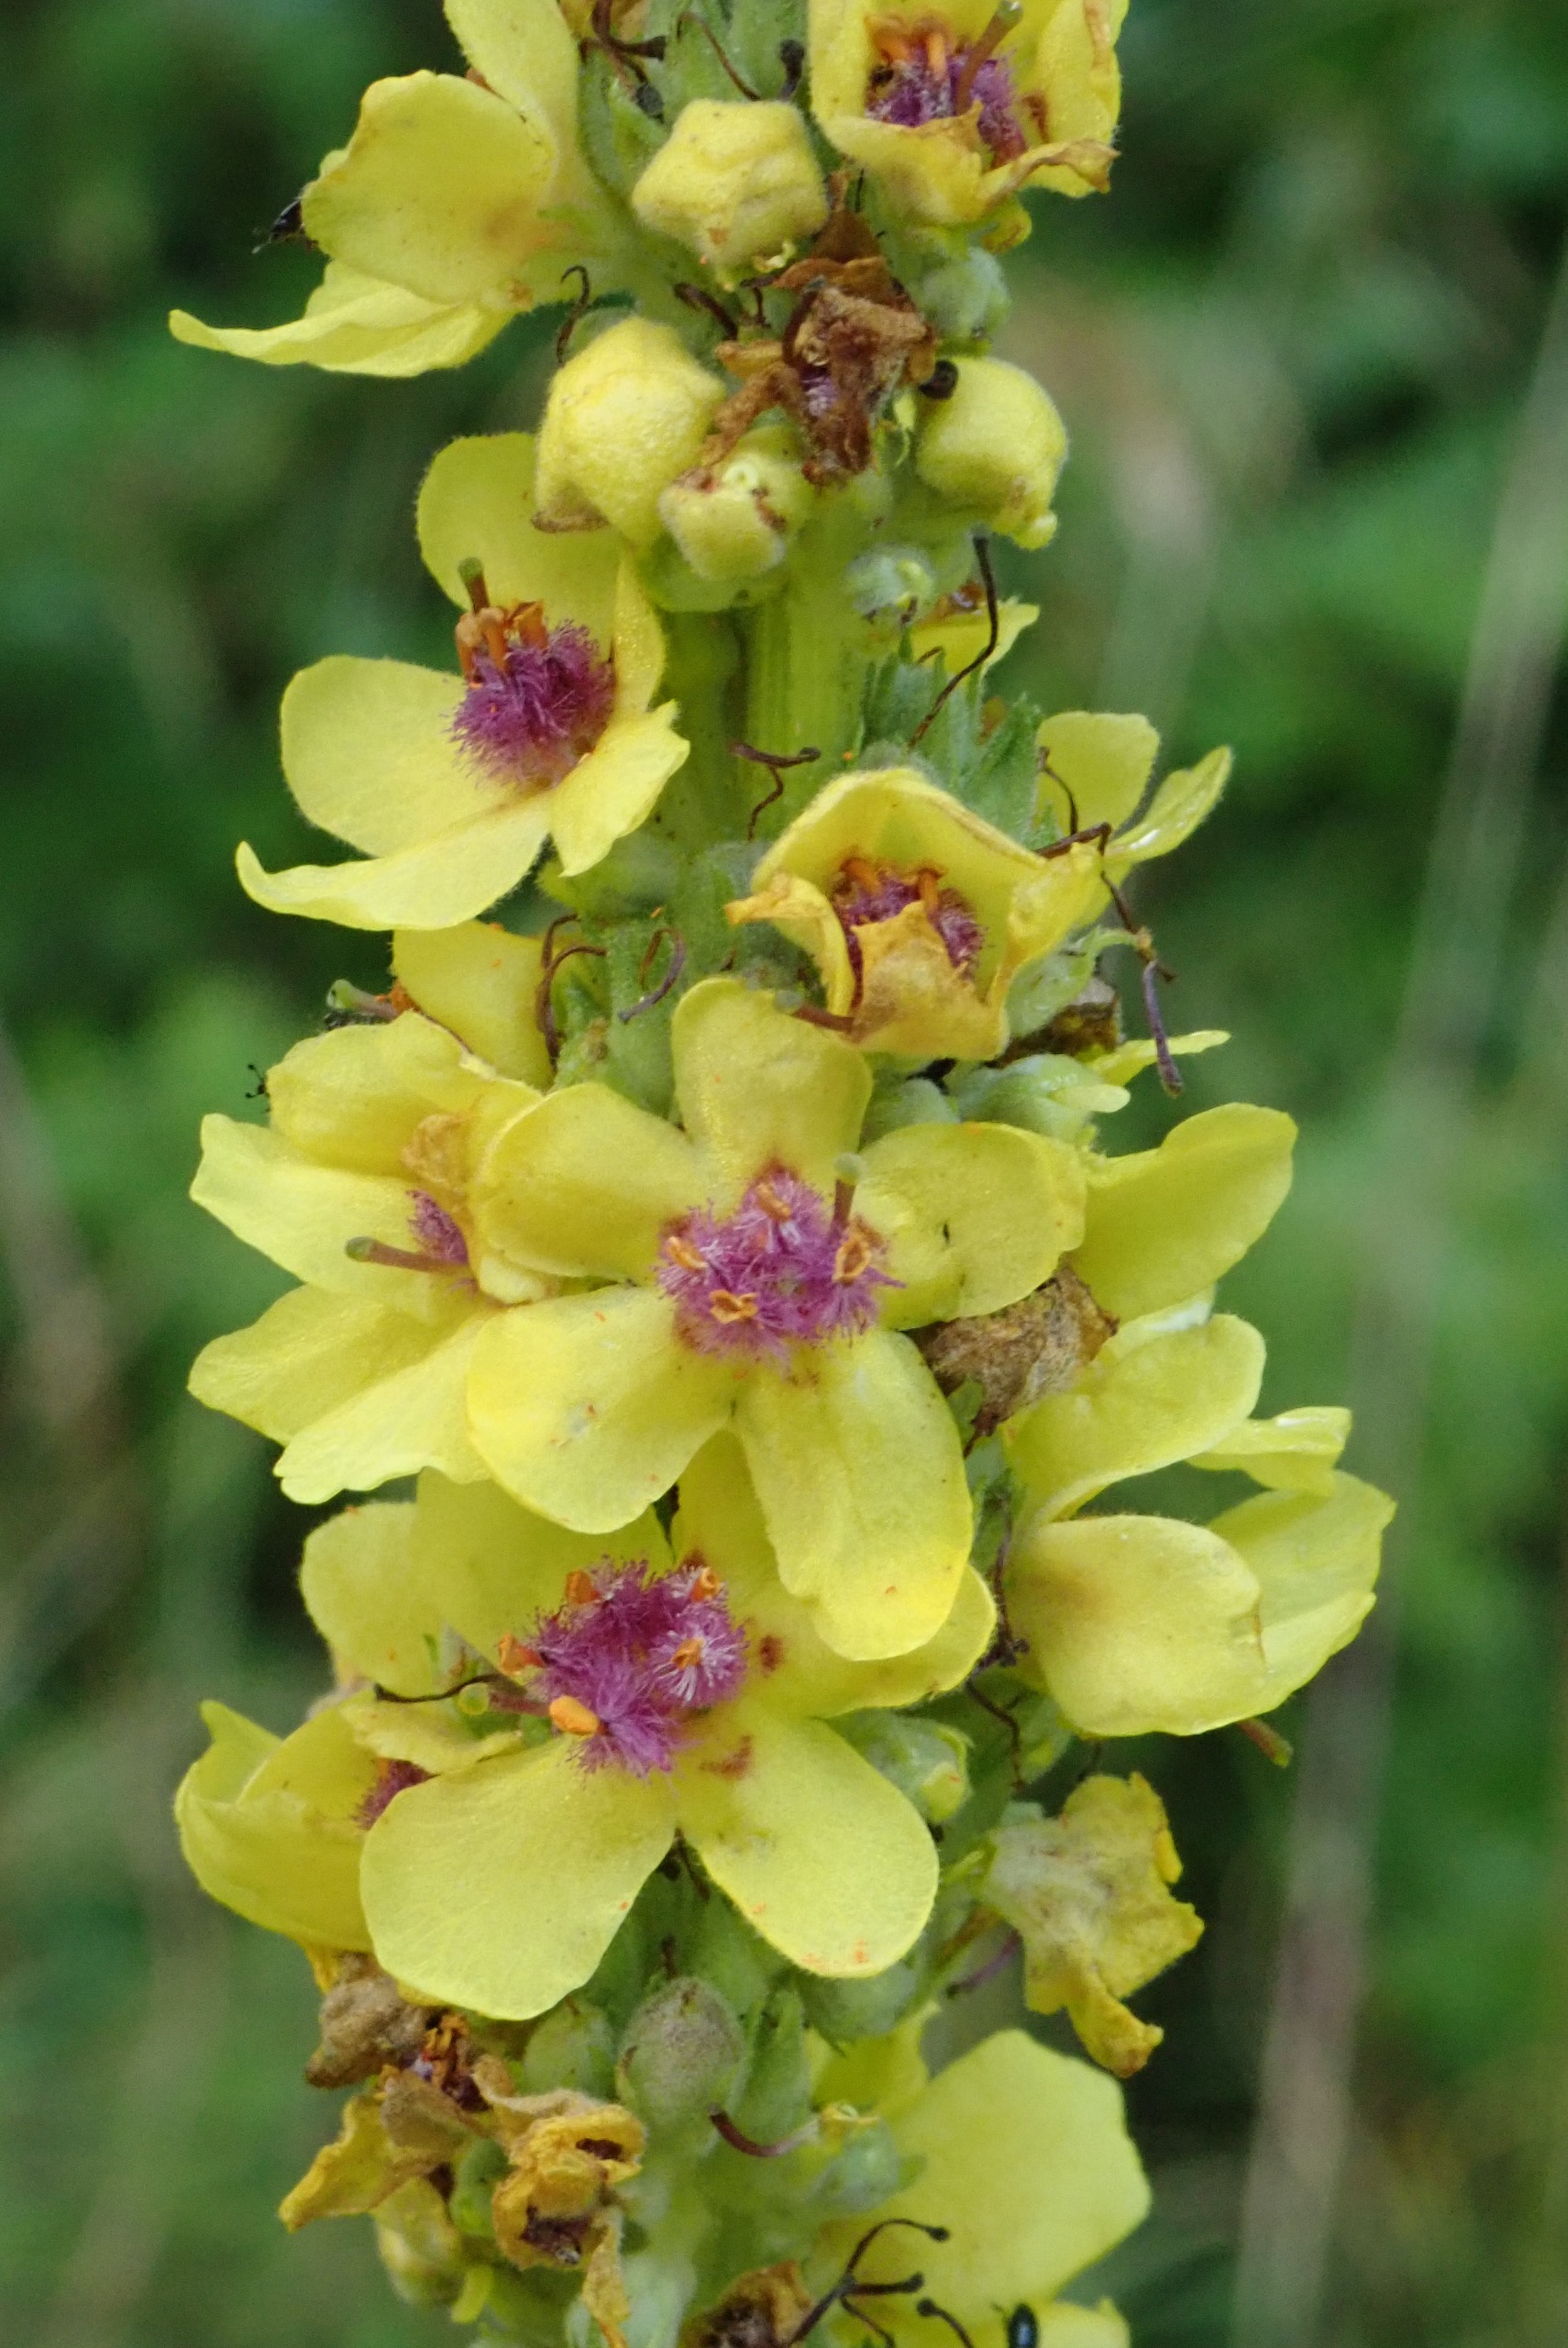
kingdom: Plantae
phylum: Tracheophyta
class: Magnoliopsida
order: Lamiales
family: Scrophulariaceae
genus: Verbascum
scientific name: Verbascum nigrum
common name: Mørk kongelys
